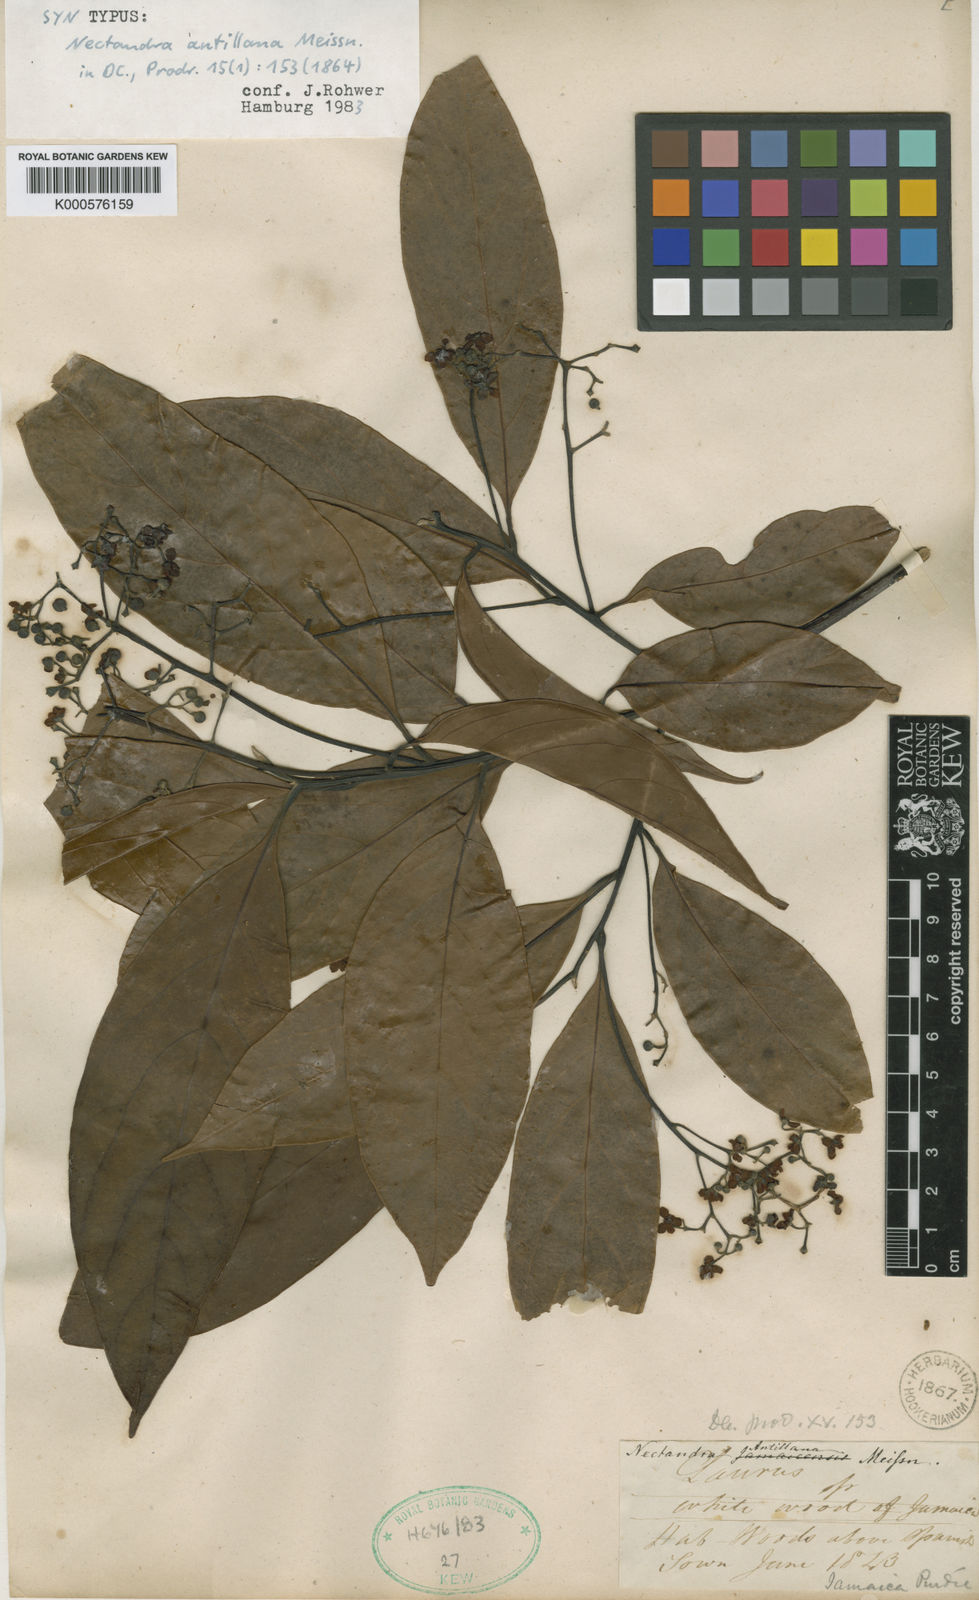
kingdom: Plantae
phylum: Tracheophyta
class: Magnoliopsida
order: Laurales
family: Lauraceae
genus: Nectandra
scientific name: Nectandra hihua
